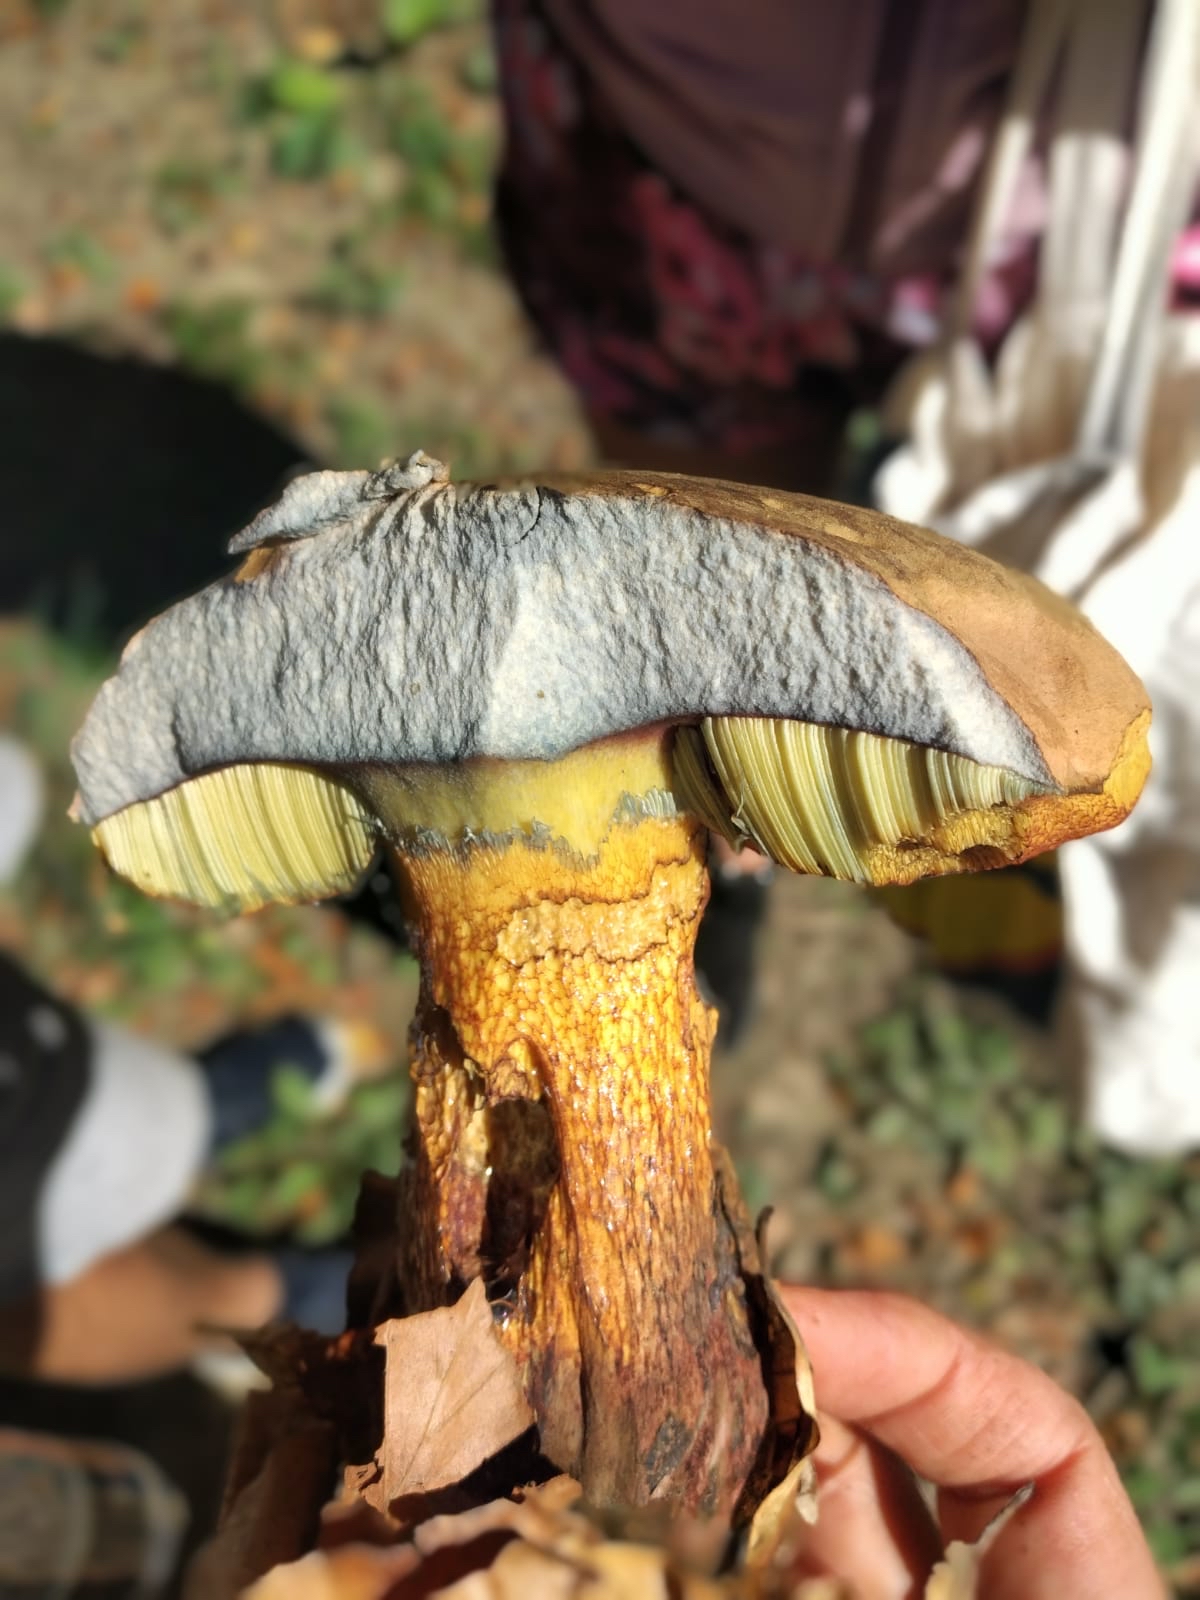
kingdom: Fungi
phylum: Basidiomycota
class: Agaricomycetes
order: Boletales
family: Boletaceae
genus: Suillellus
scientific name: Suillellus luridus
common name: netstokket indigorørhat
